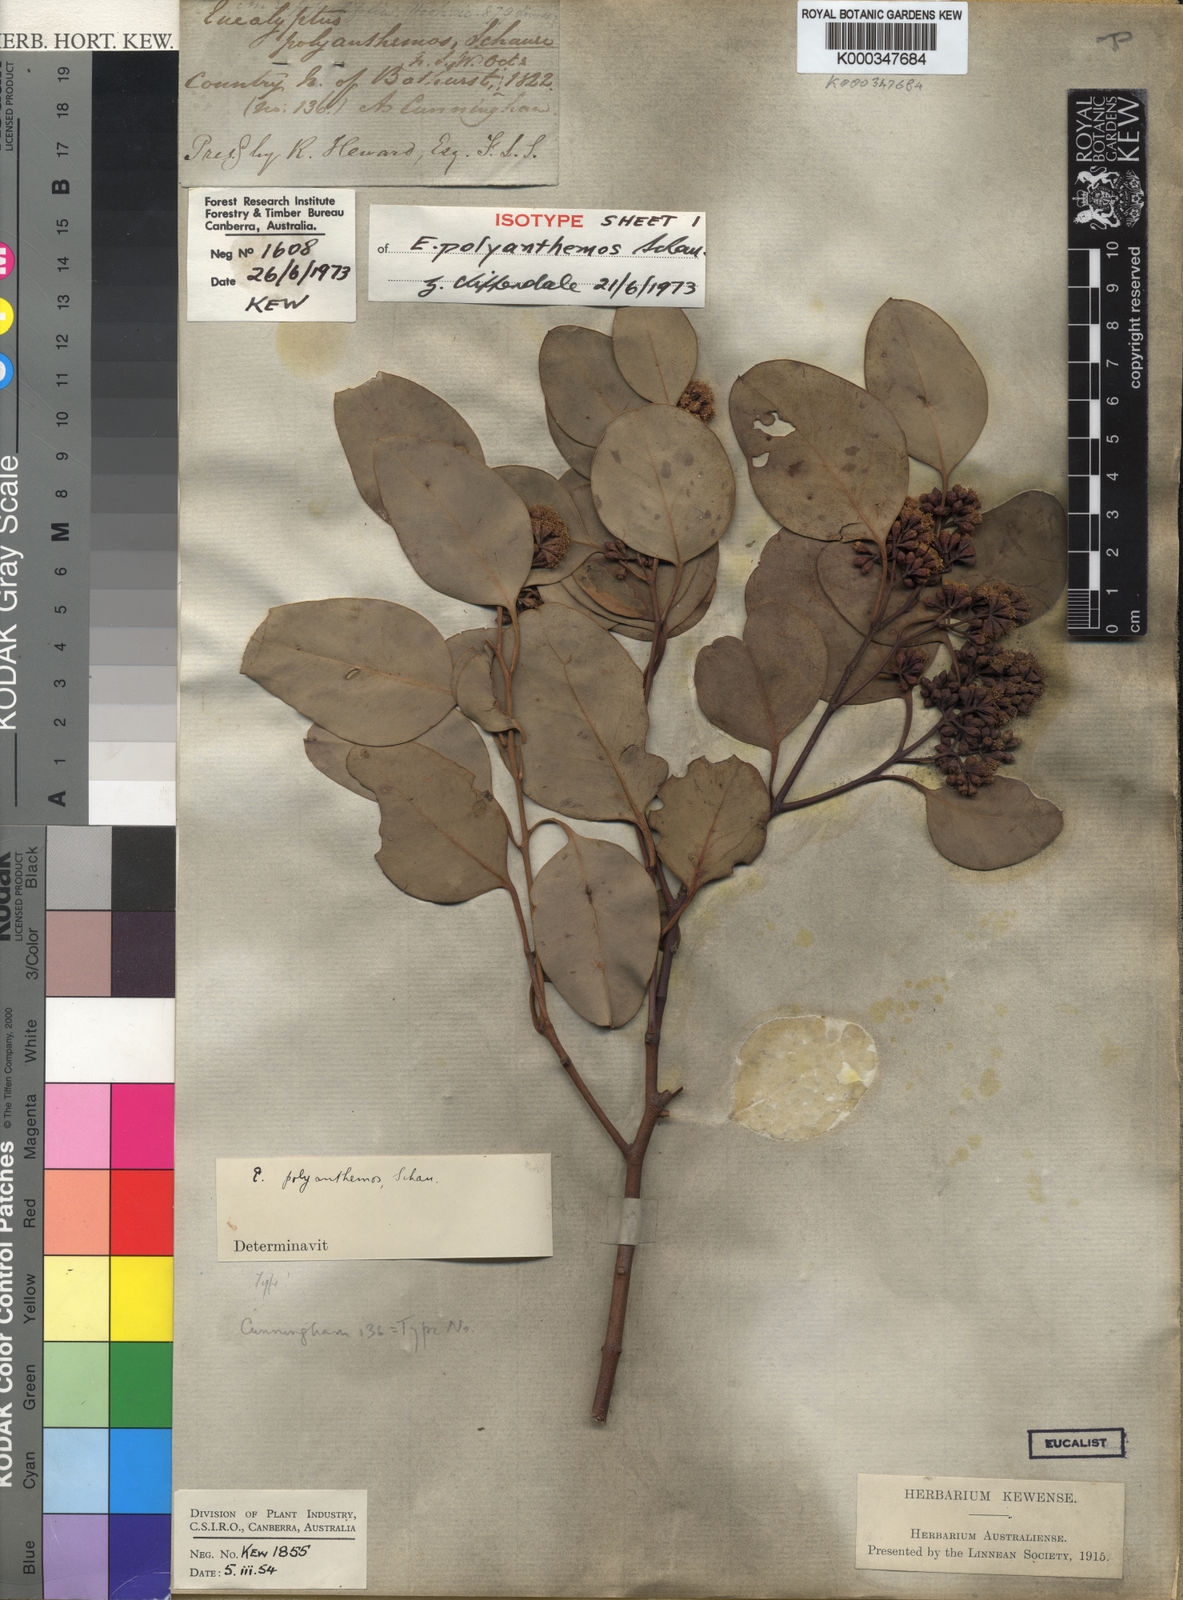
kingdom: Plantae
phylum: Tracheophyta
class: Magnoliopsida
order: Myrtales
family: Myrtaceae
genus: Eucalyptus
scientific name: Eucalyptus polyanthemos
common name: Red-box
